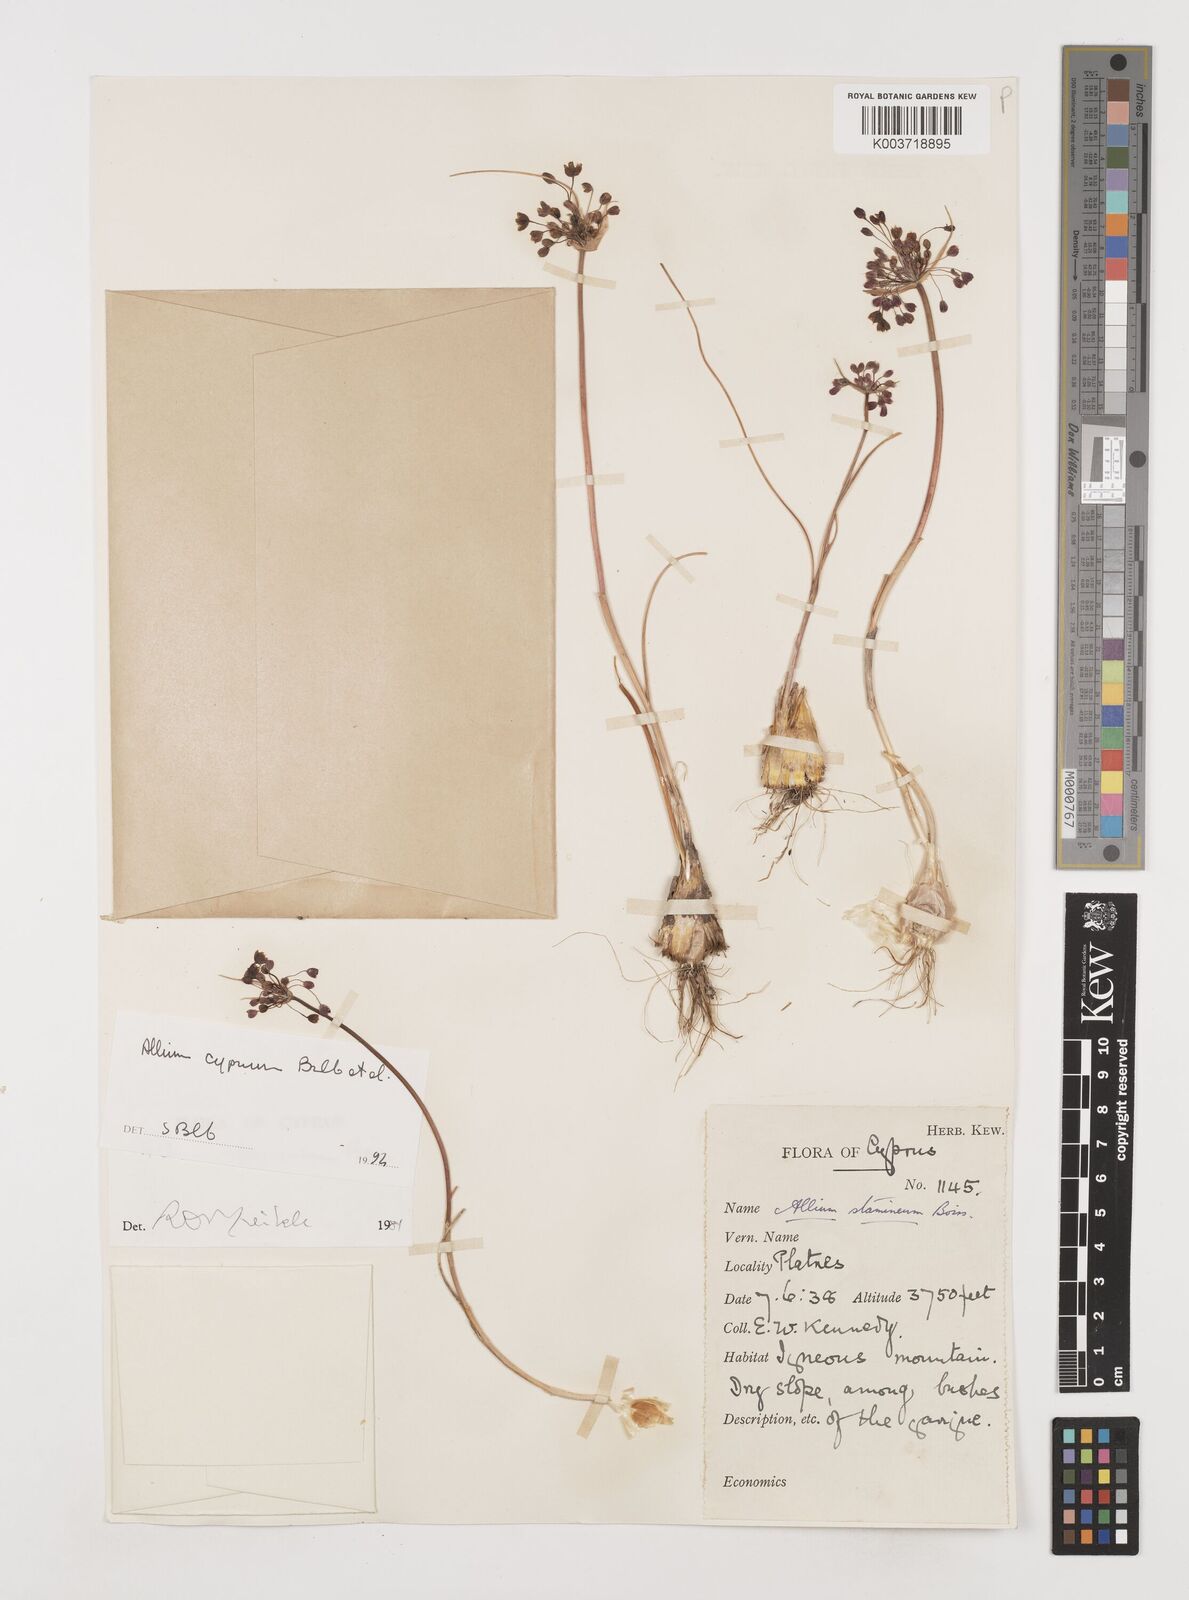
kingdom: Plantae
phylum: Tracheophyta
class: Liliopsida
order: Asparagales
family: Amaryllidaceae
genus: Allium
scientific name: Allium stamineum
